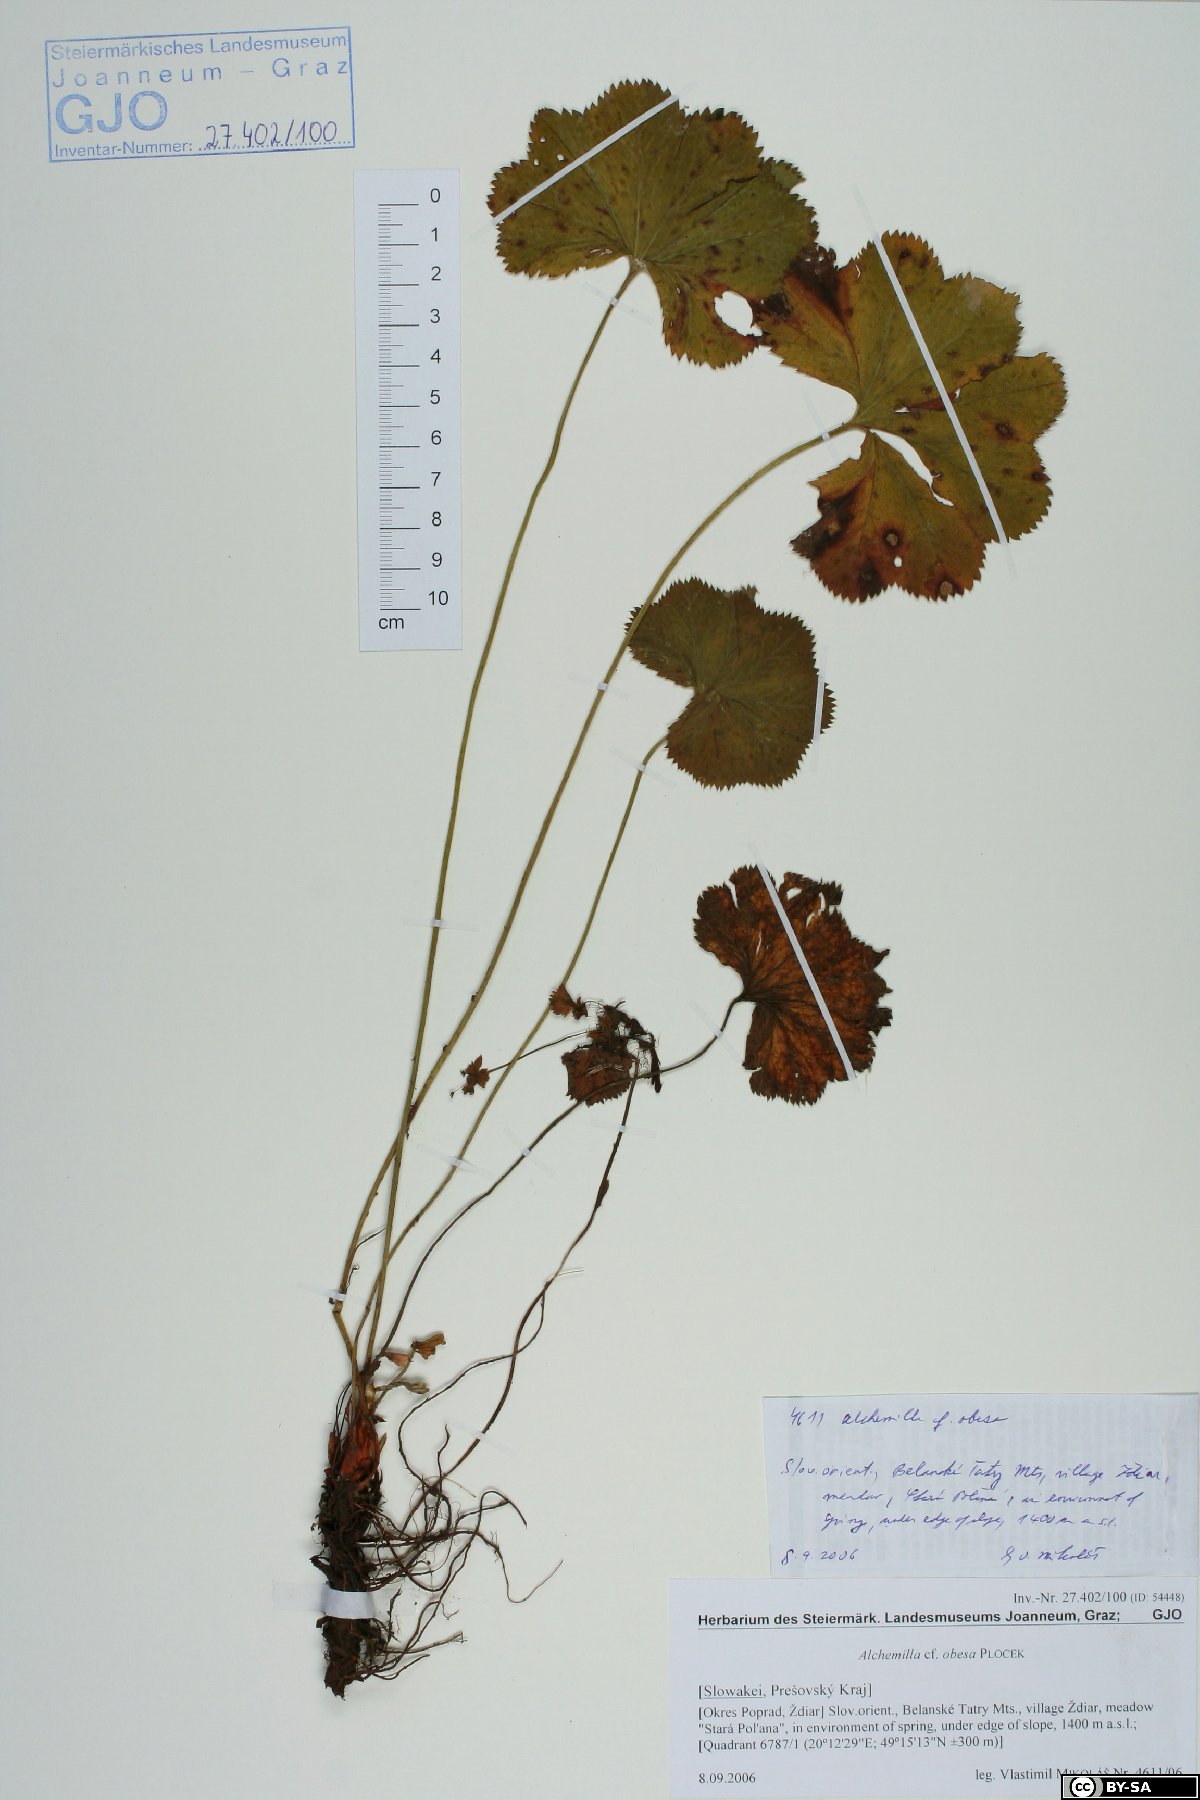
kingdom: Plantae
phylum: Tracheophyta
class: Magnoliopsida
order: Rosales
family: Rosaceae
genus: Alchemilla
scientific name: Alchemilla obesa
